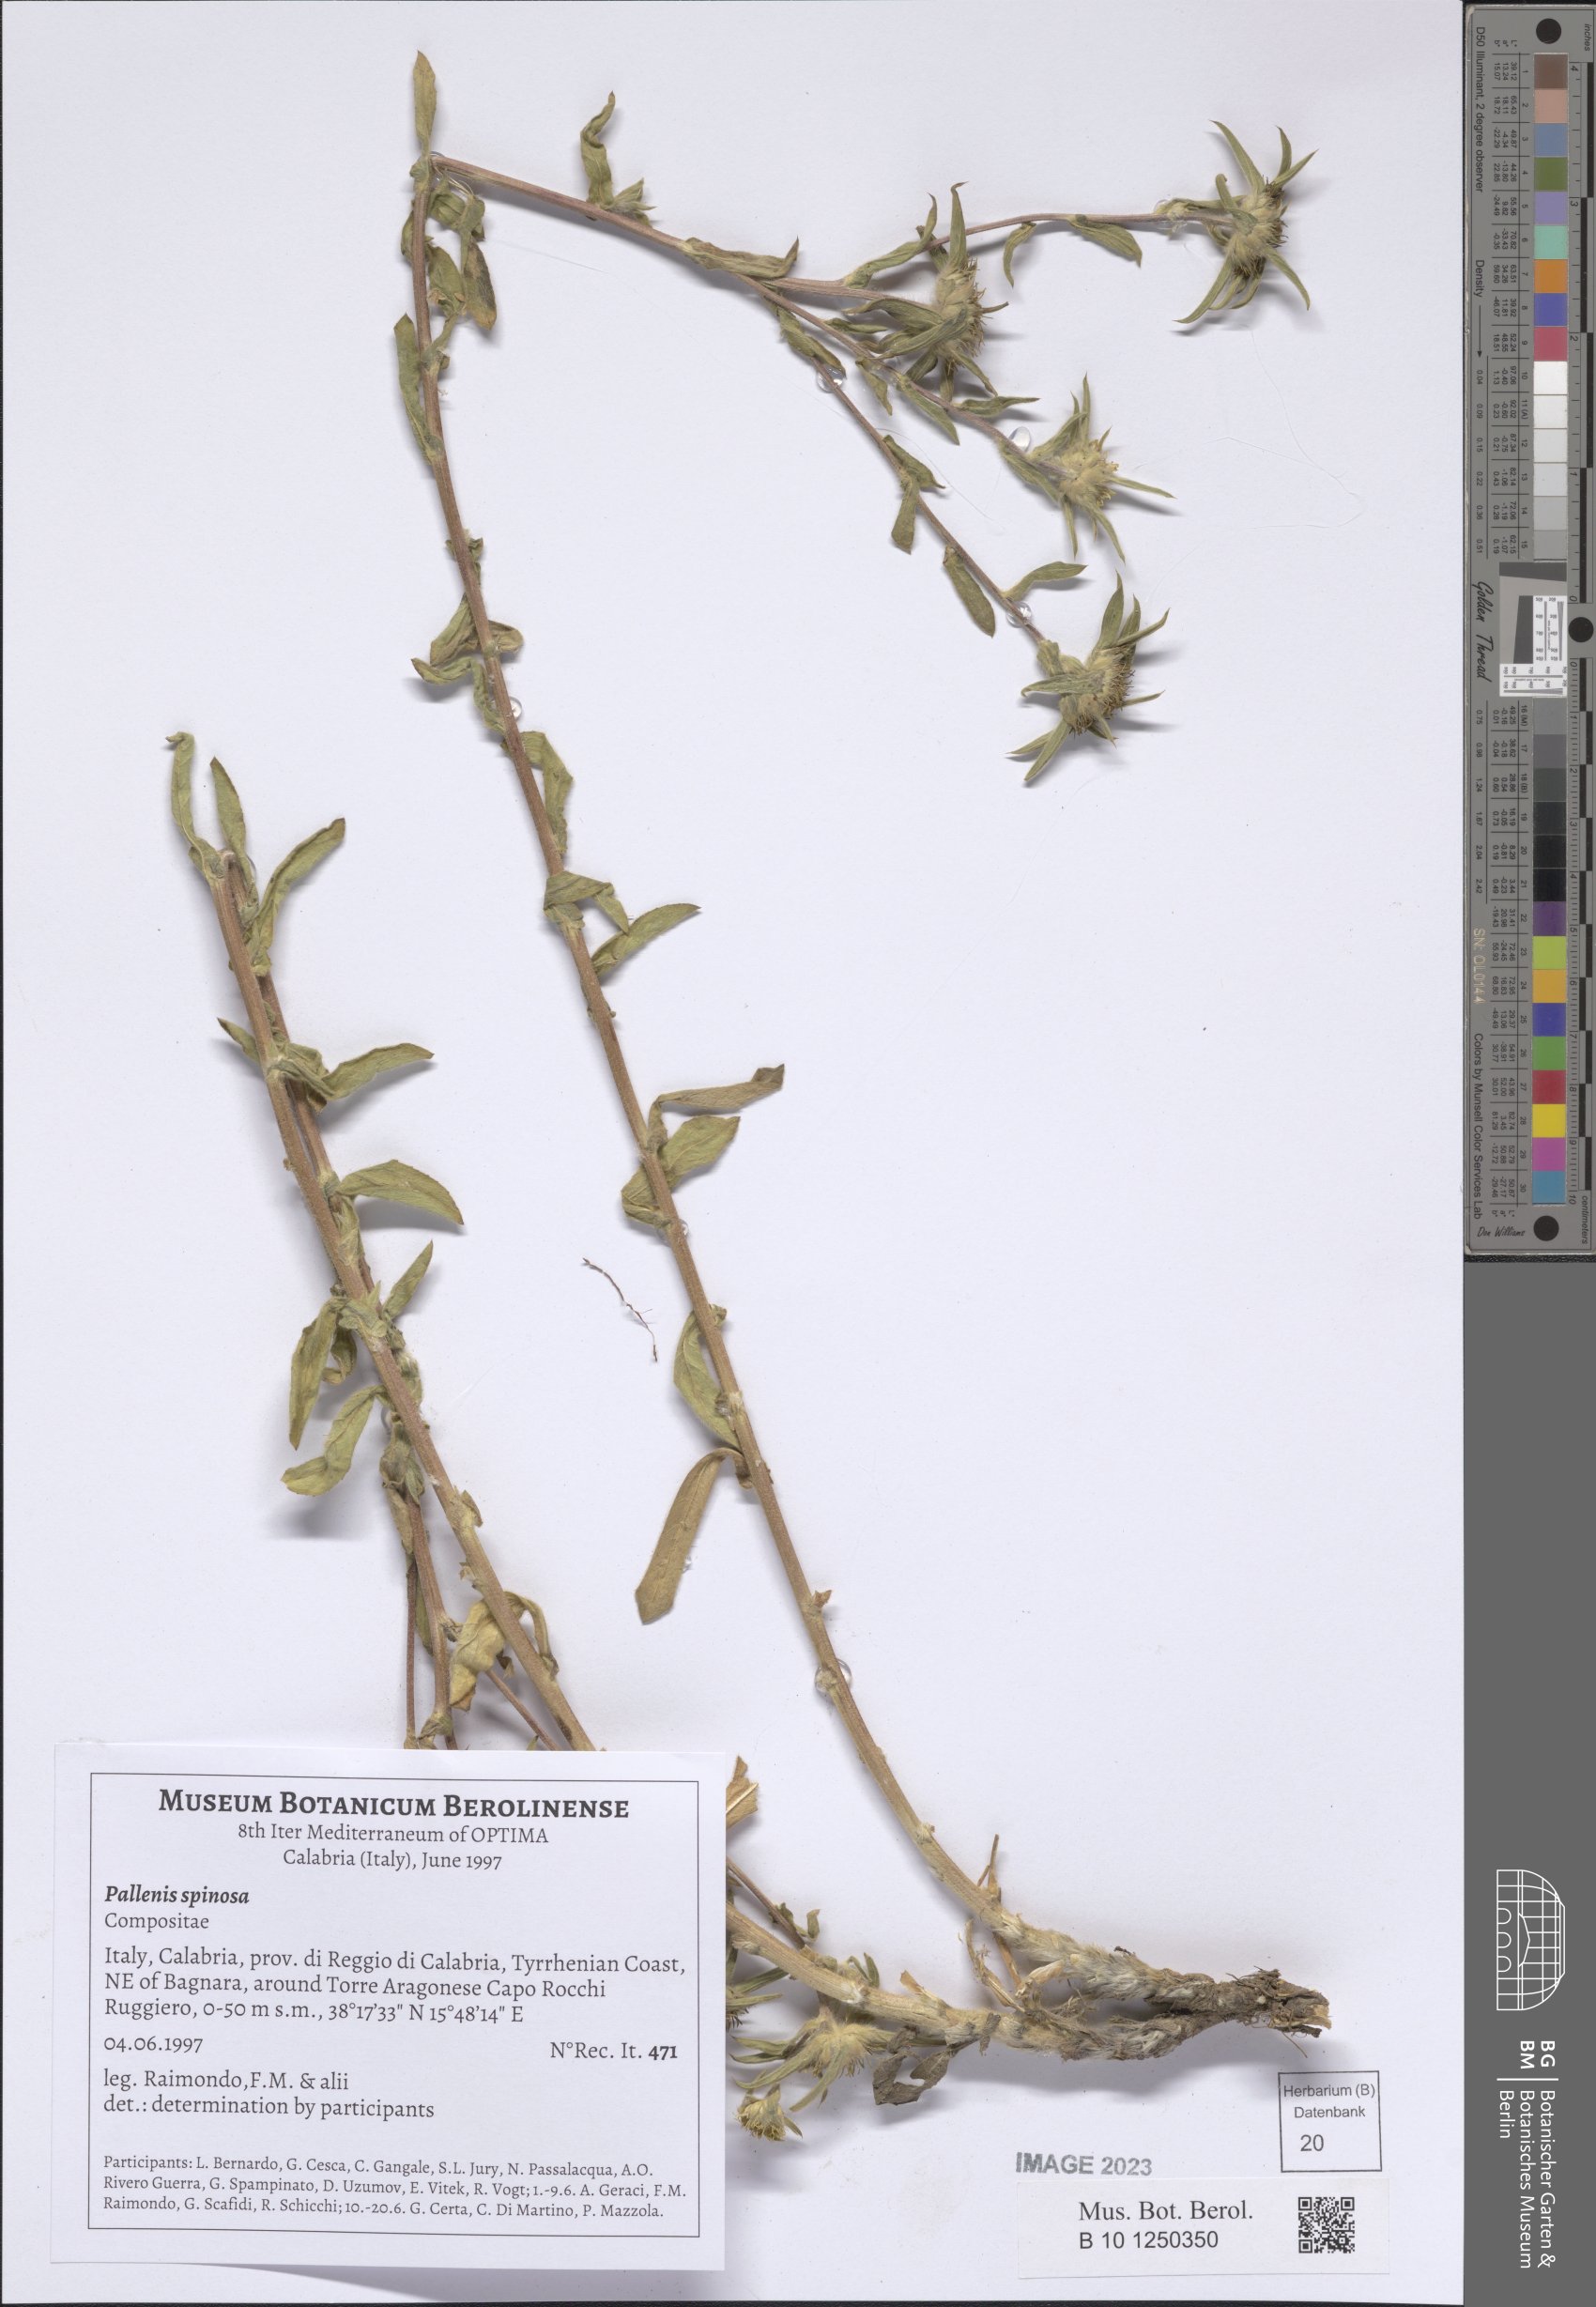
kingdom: Plantae
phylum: Tracheophyta
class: Magnoliopsida
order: Asterales
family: Asteraceae
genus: Pallenis
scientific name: Pallenis spinosa
